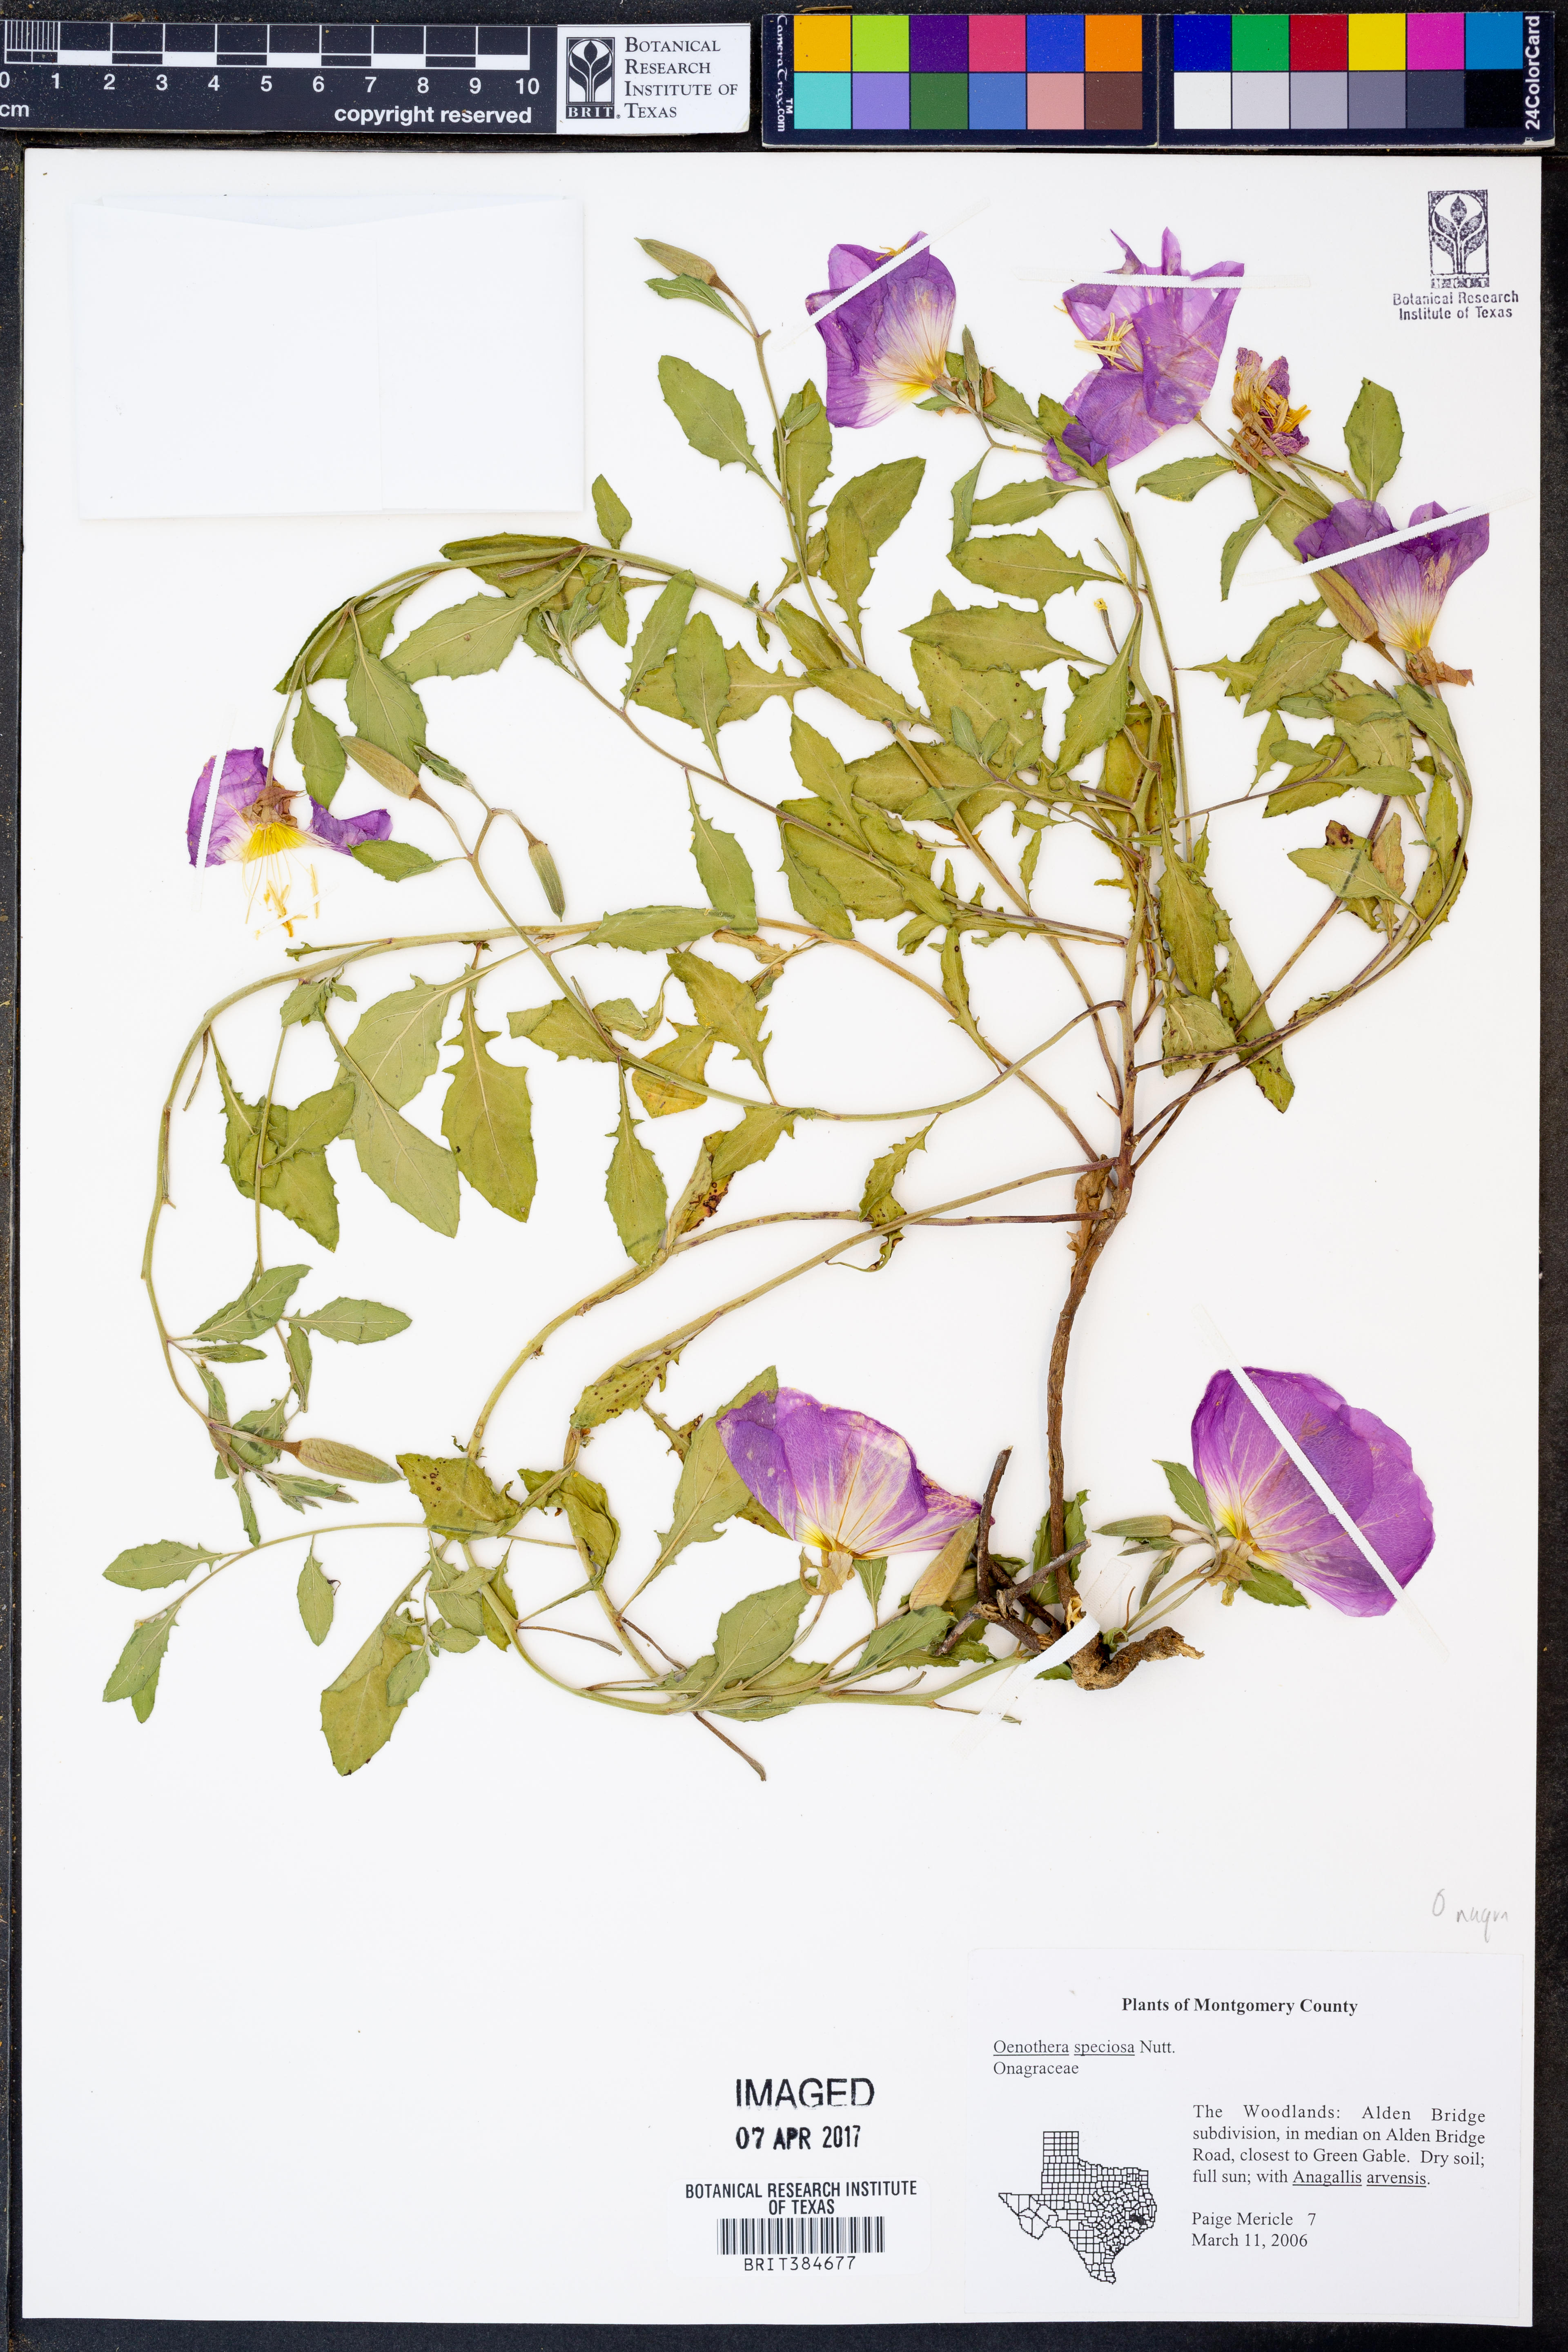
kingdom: Plantae
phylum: Tracheophyta
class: Magnoliopsida
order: Myrtales
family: Onagraceae
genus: Oenothera
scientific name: Oenothera speciosa
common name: White evening-primrose
